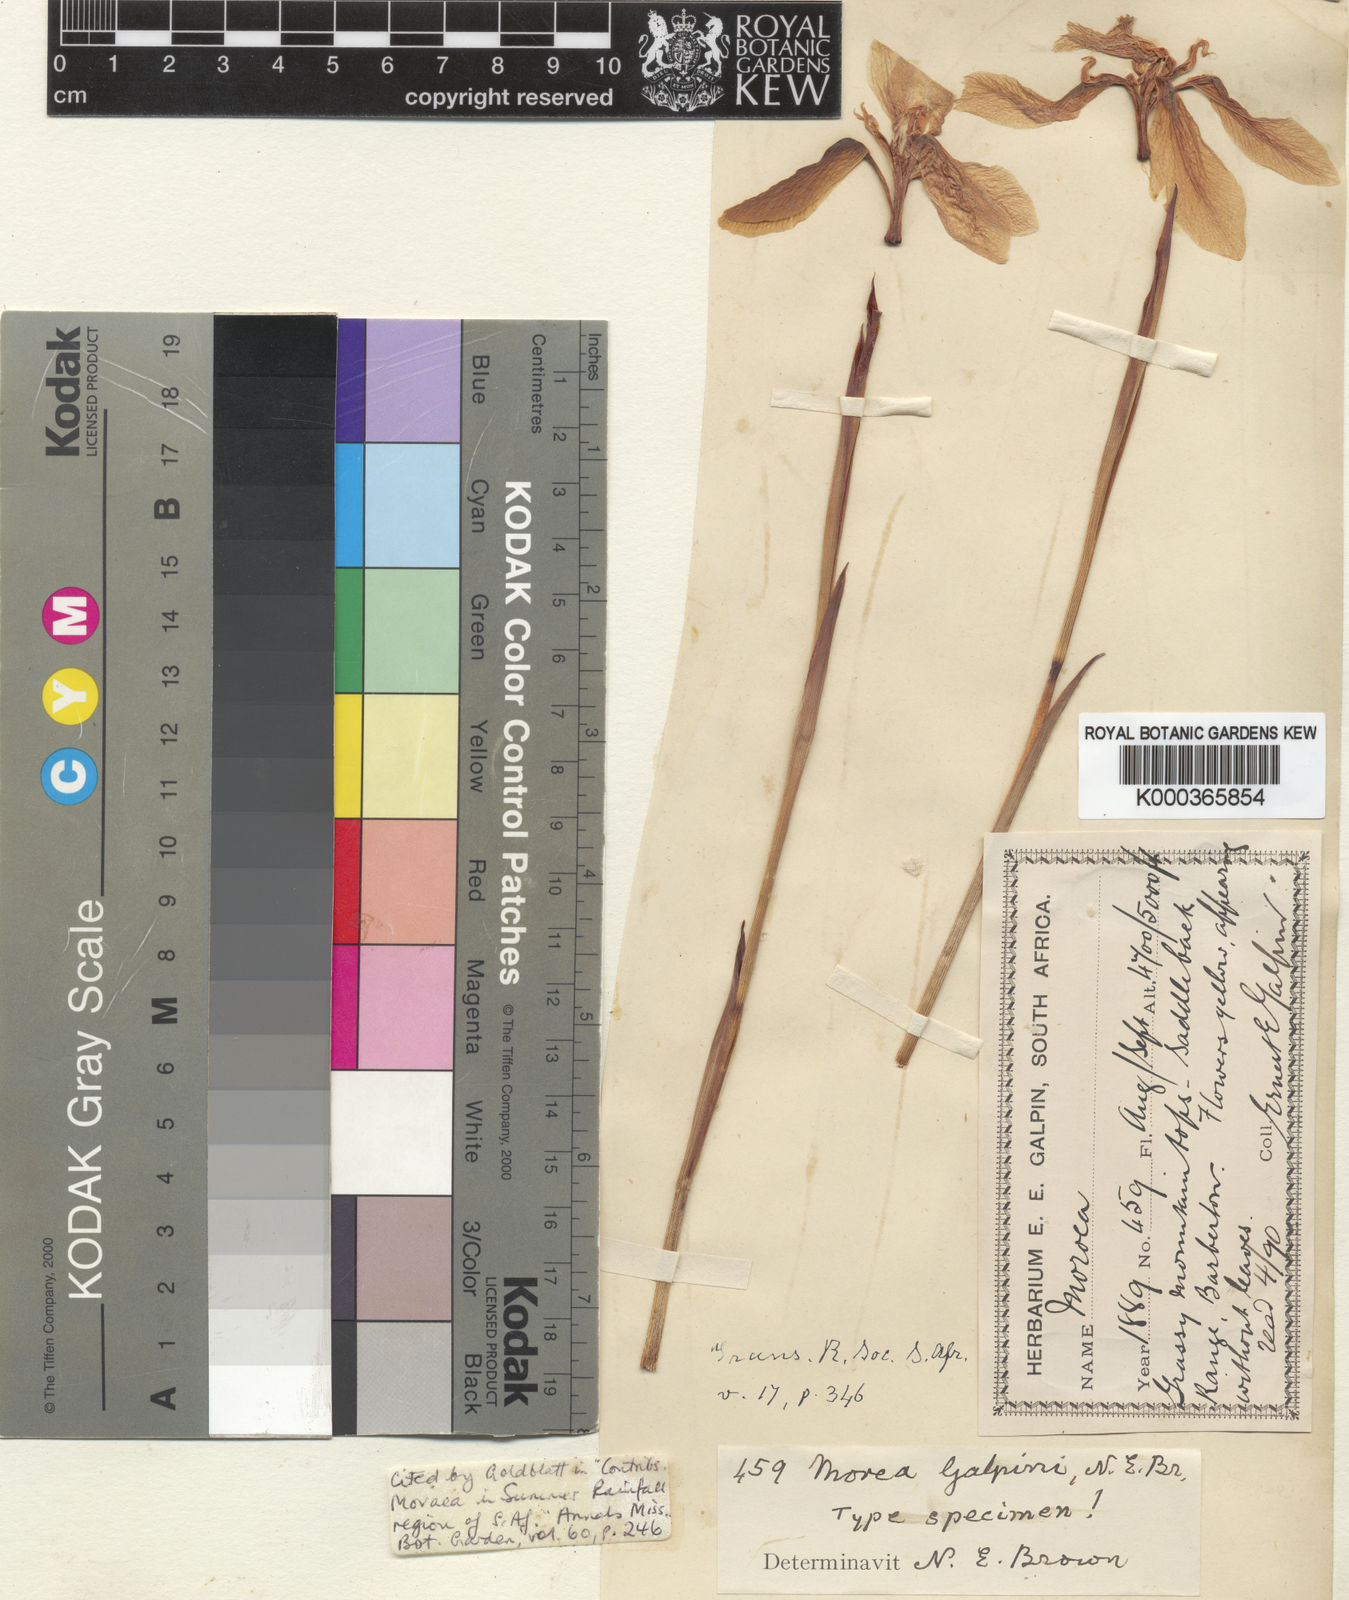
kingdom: Plantae
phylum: Tracheophyta
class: Liliopsida
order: Asparagales
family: Iridaceae
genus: Moraea
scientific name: Moraea galpinii
